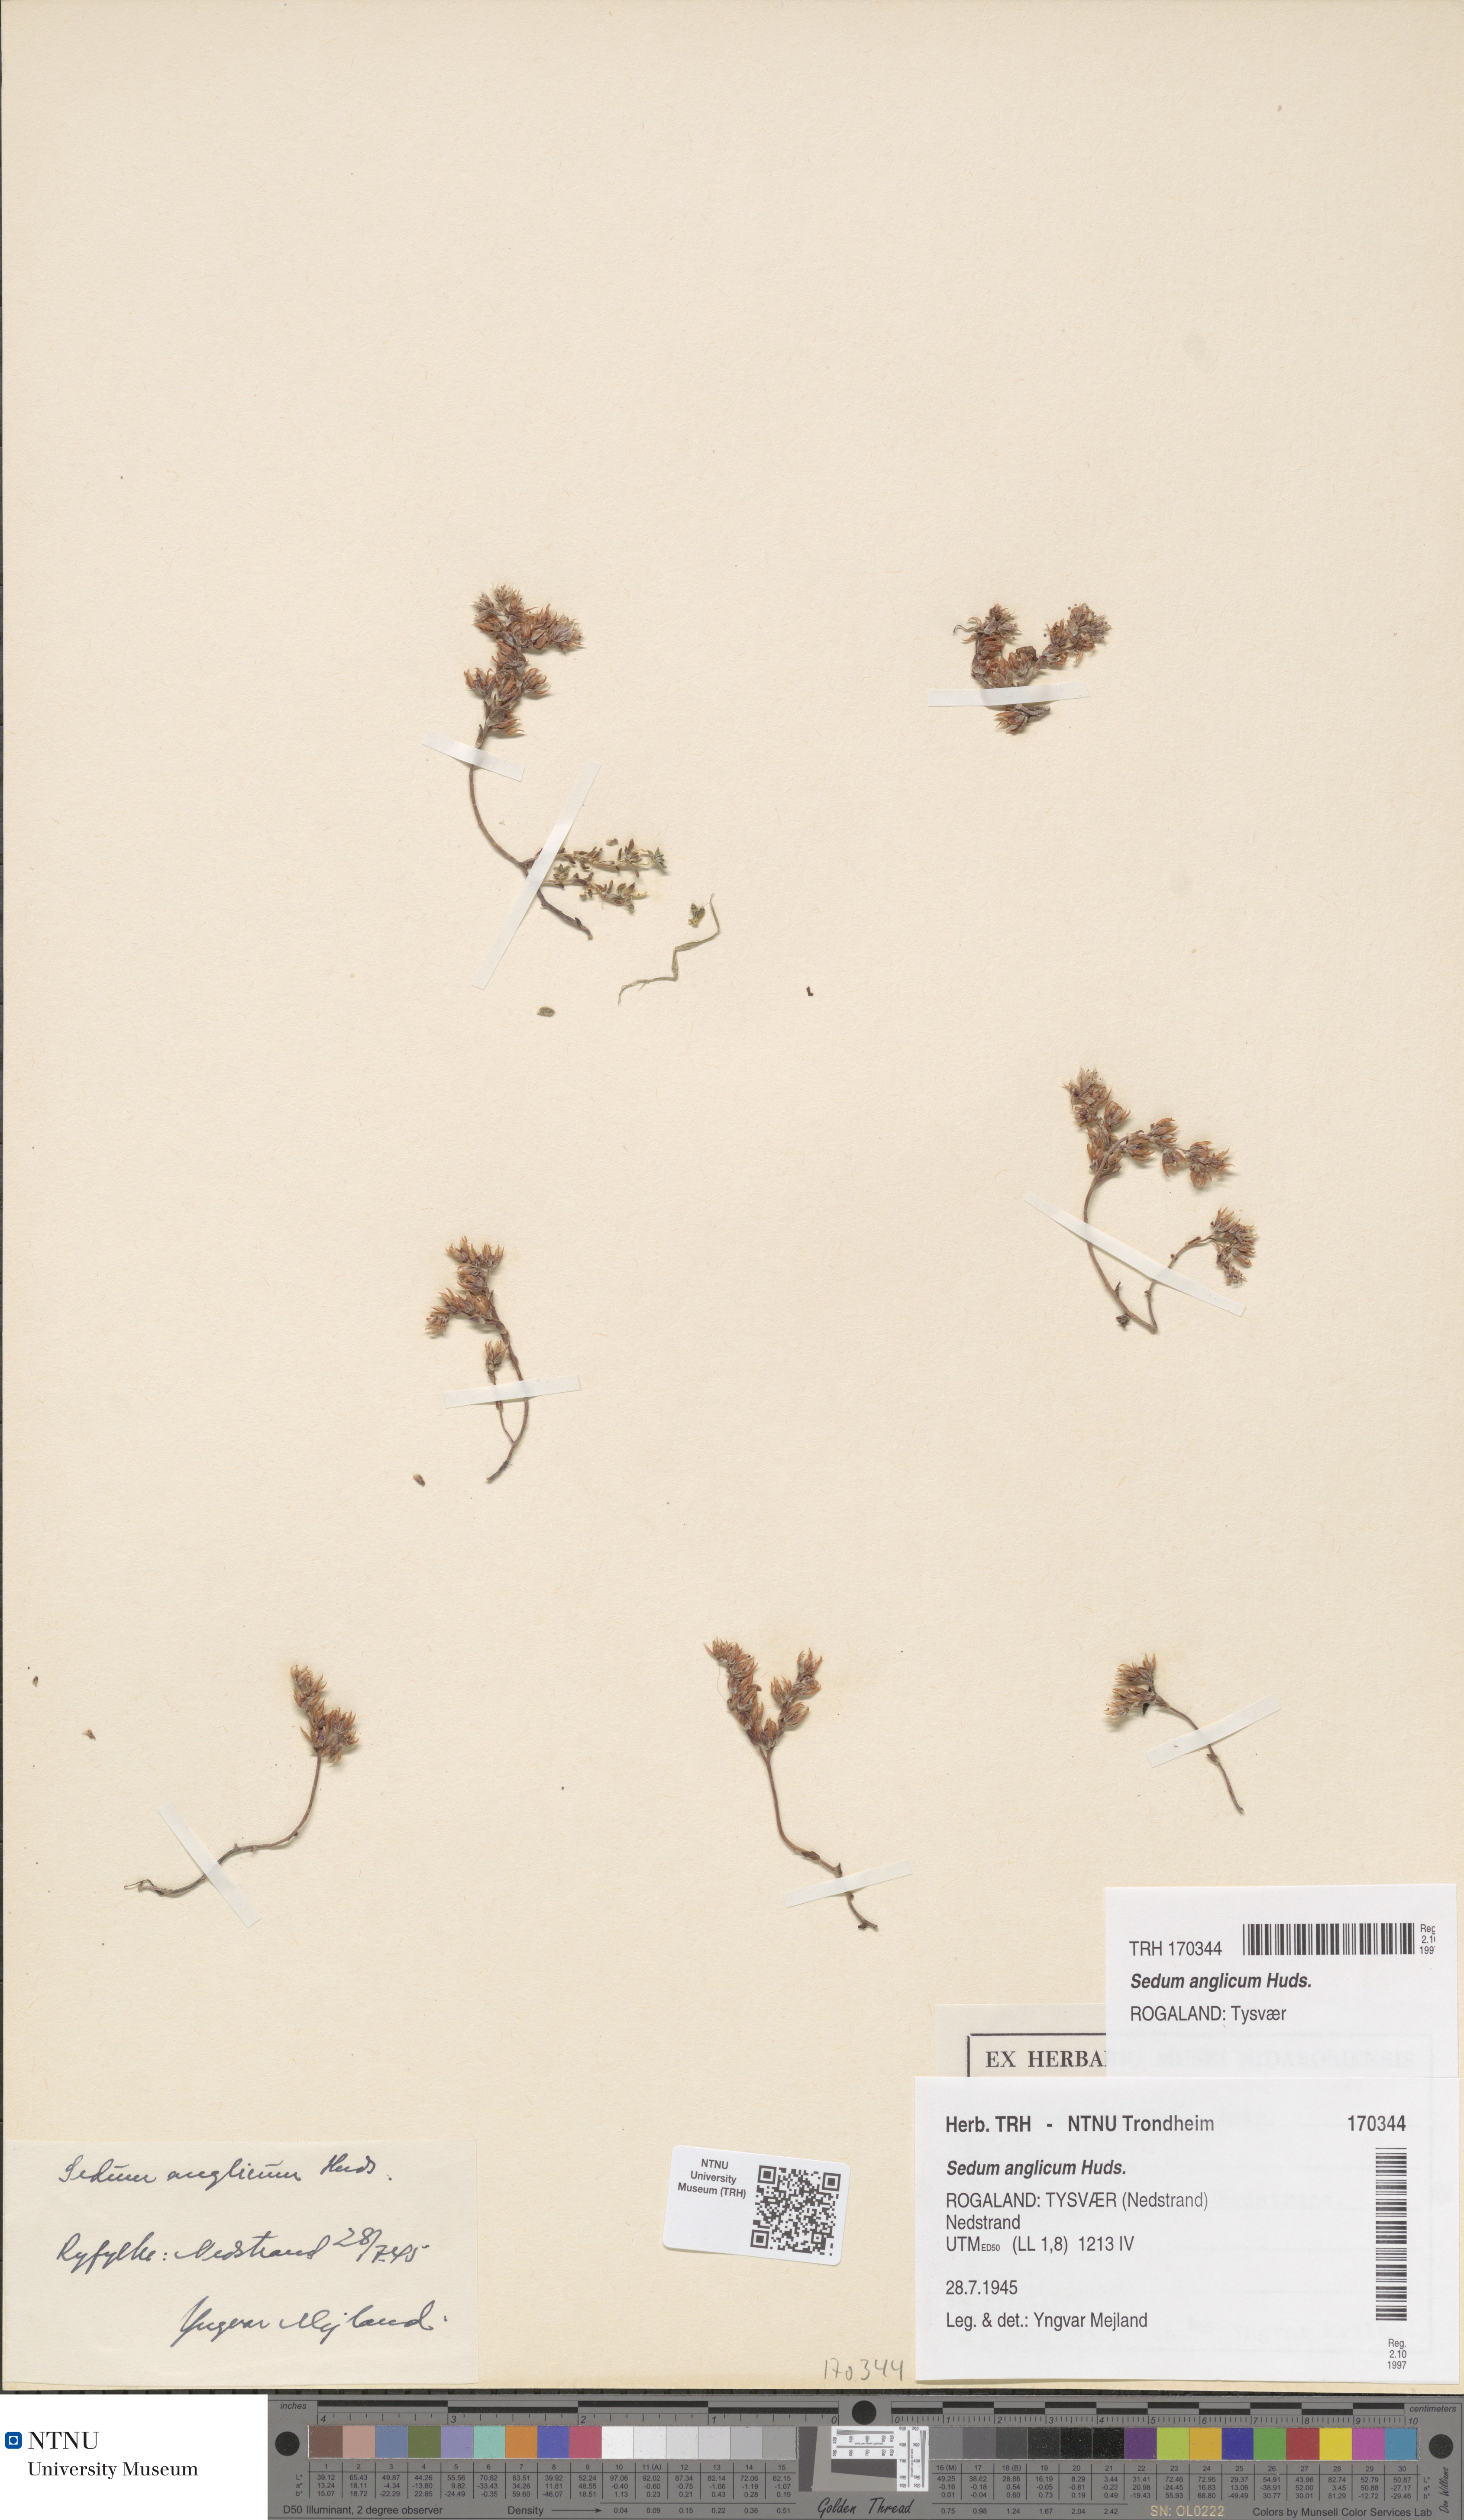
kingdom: Plantae
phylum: Tracheophyta
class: Magnoliopsida
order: Saxifragales
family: Crassulaceae
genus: Sedum
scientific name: Sedum anglicum
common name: English stonecrop
